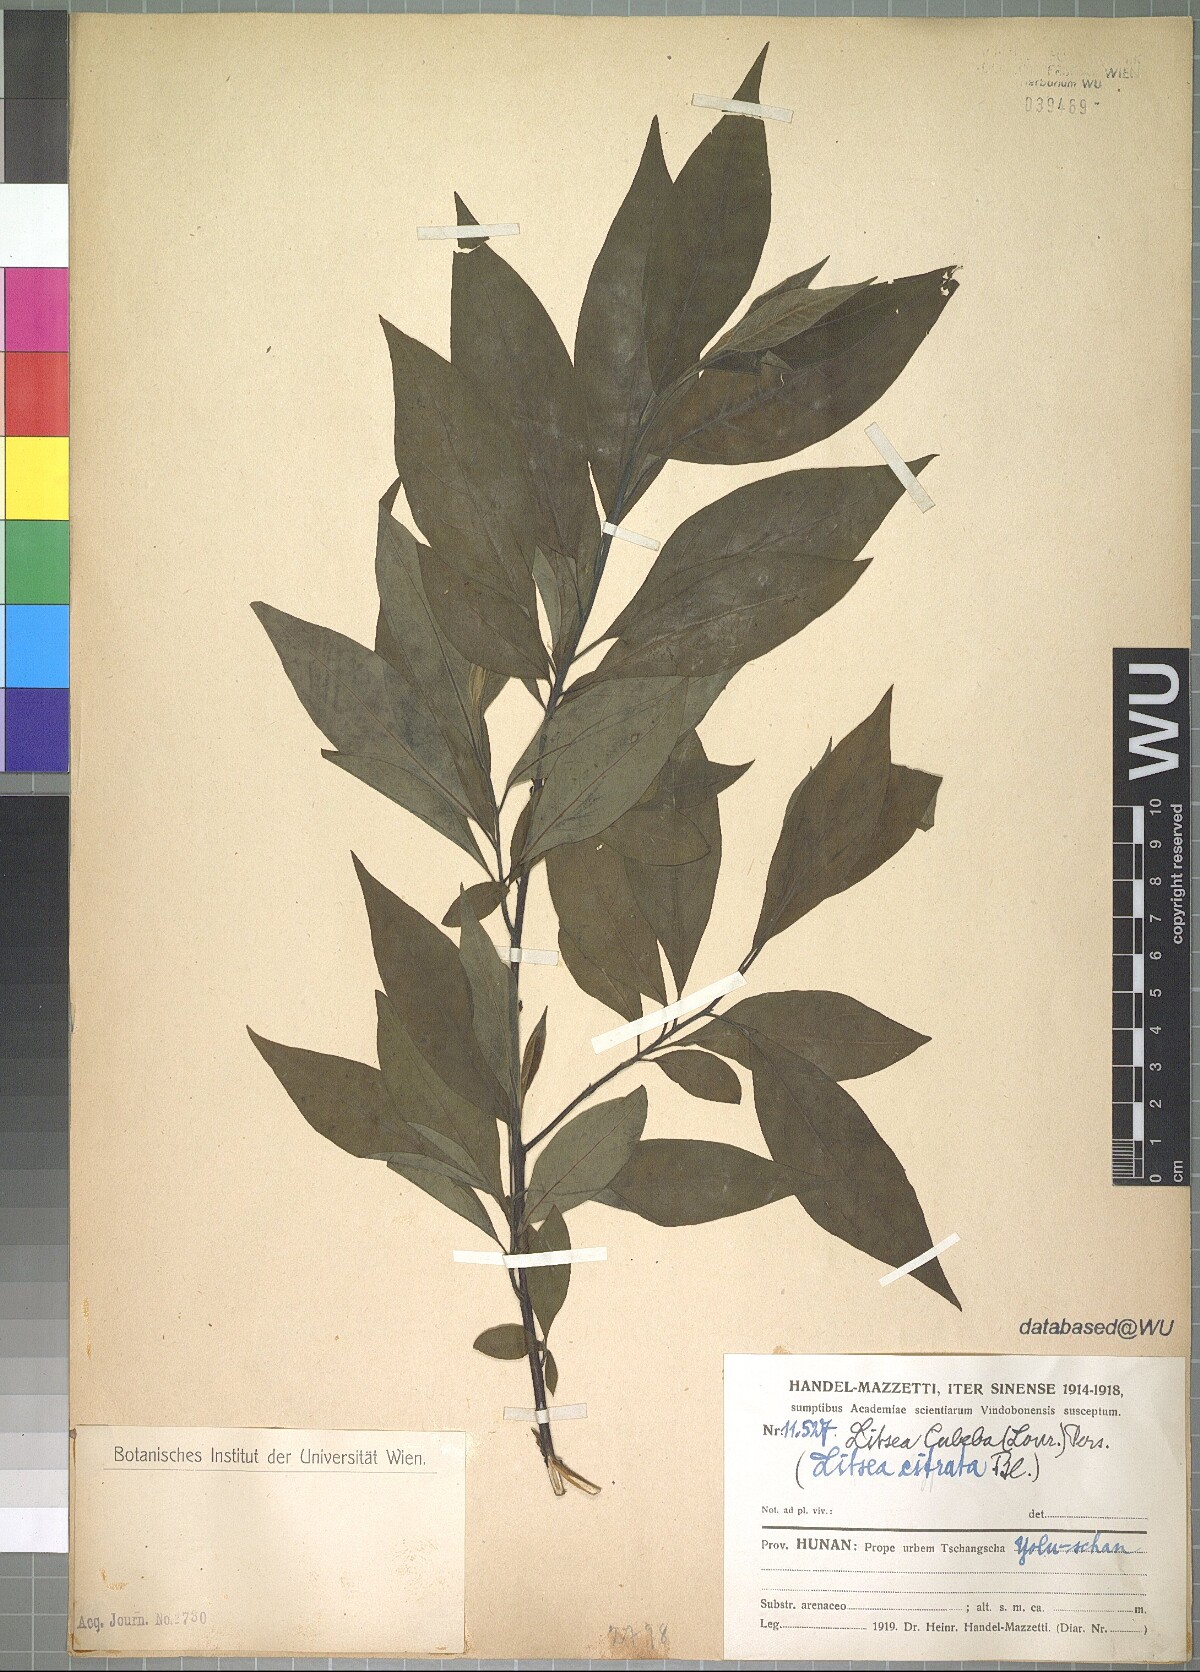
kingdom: Plantae
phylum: Tracheophyta
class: Magnoliopsida
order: Laurales
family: Lauraceae
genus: Litsea
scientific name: Litsea cubeba
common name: Mountain-pepper
